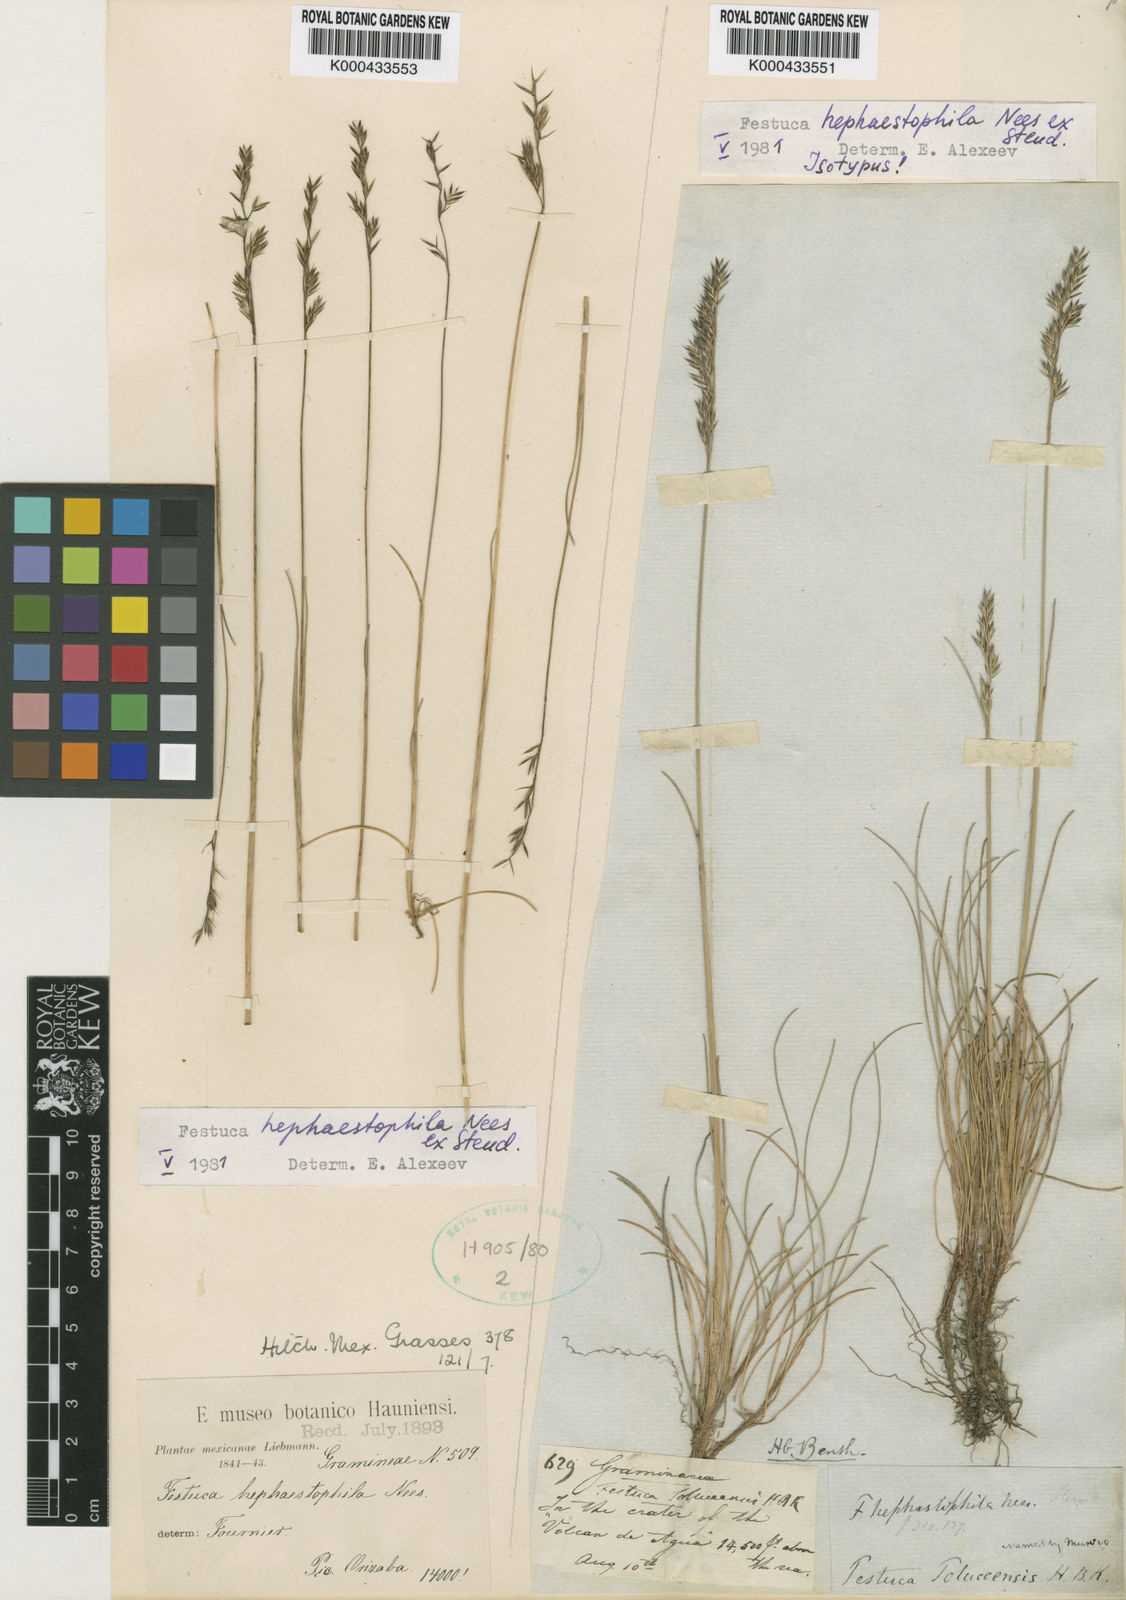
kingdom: Plantae
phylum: Tracheophyta
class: Liliopsida
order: Poales
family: Poaceae
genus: Festuca
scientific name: Festuca hephaestophila
